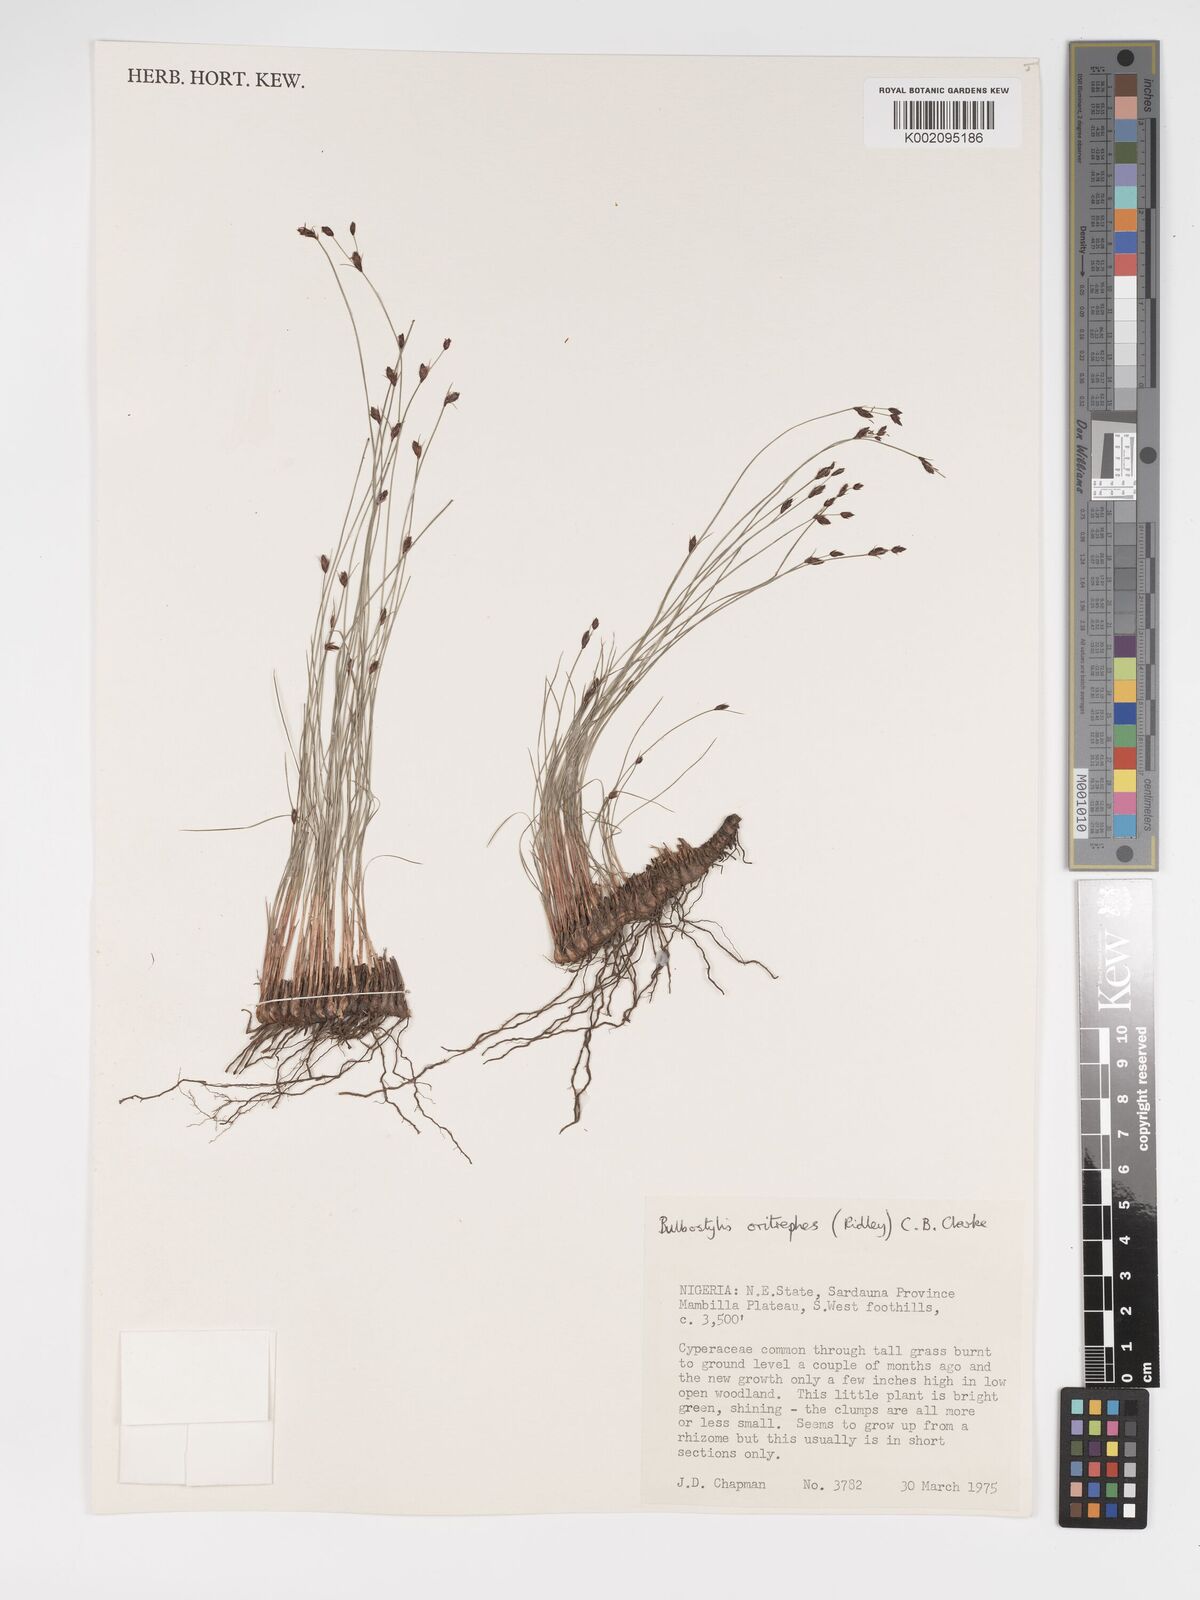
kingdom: Plantae
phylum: Tracheophyta
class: Liliopsida
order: Poales
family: Cyperaceae
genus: Bulbostylis
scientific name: Bulbostylis oritrephes
